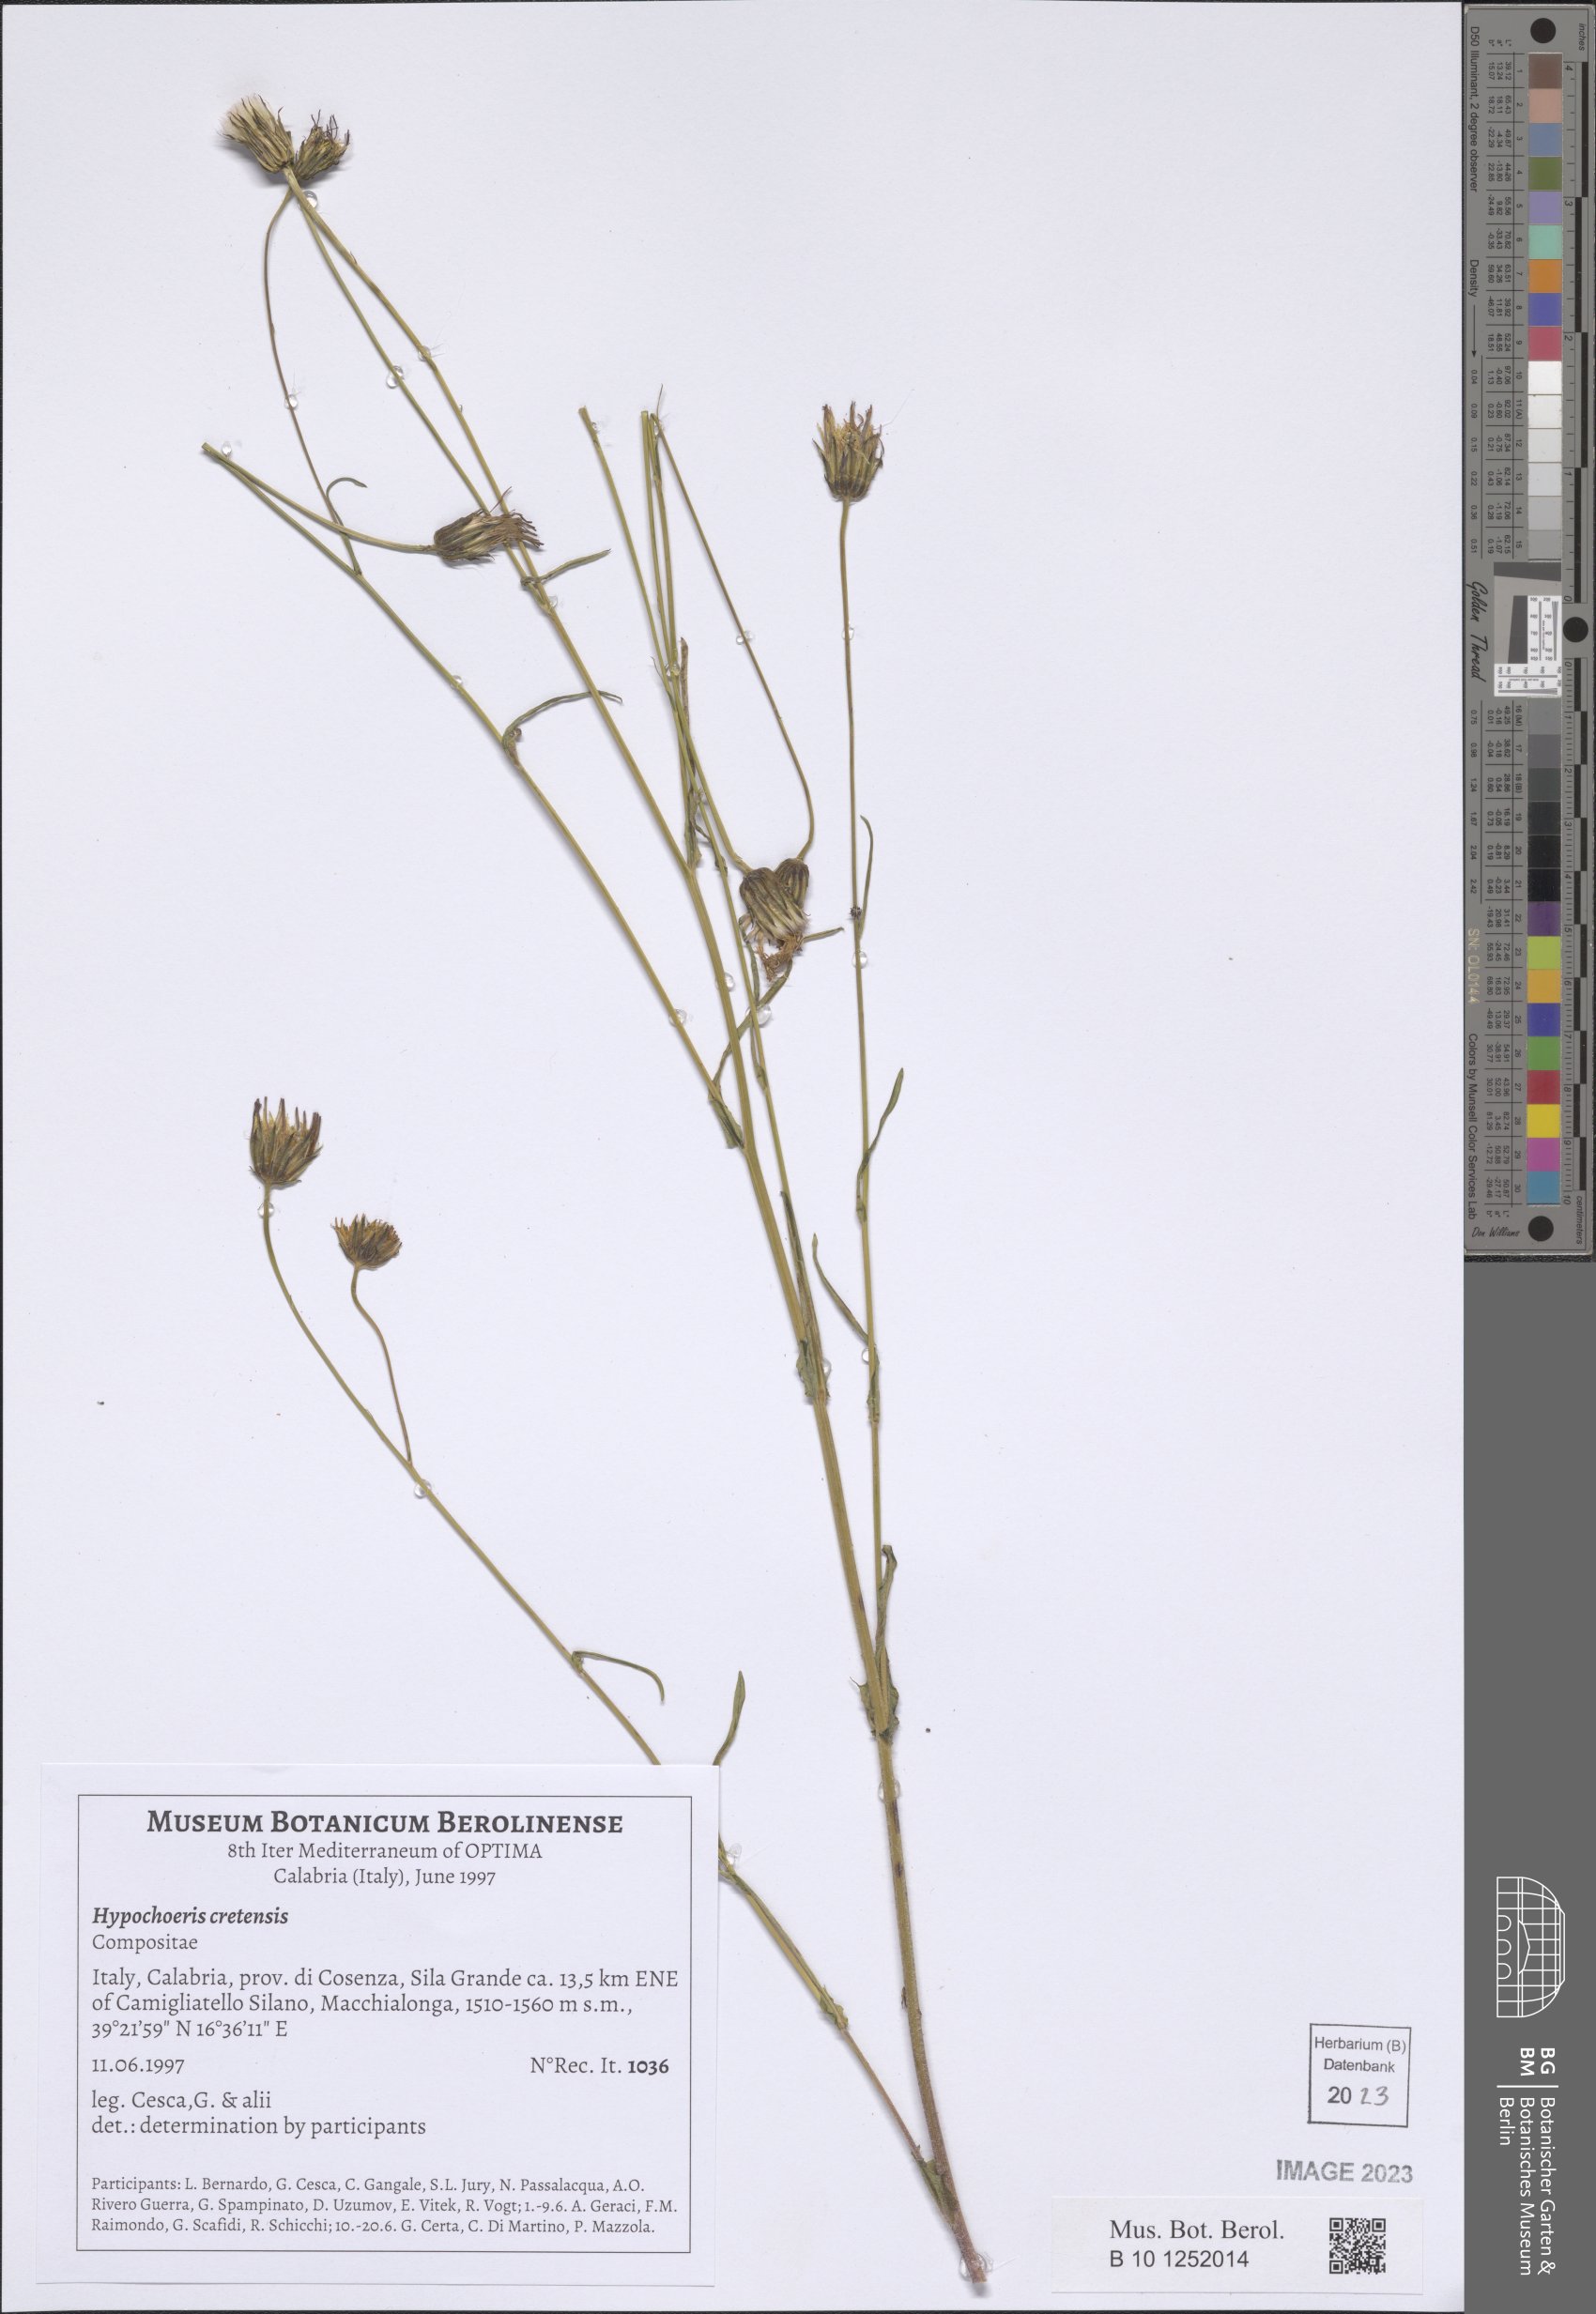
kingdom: Plantae
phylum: Tracheophyta
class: Magnoliopsida
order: Asterales
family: Asteraceae
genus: Hypochaeris
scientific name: Hypochaeris cretensis
